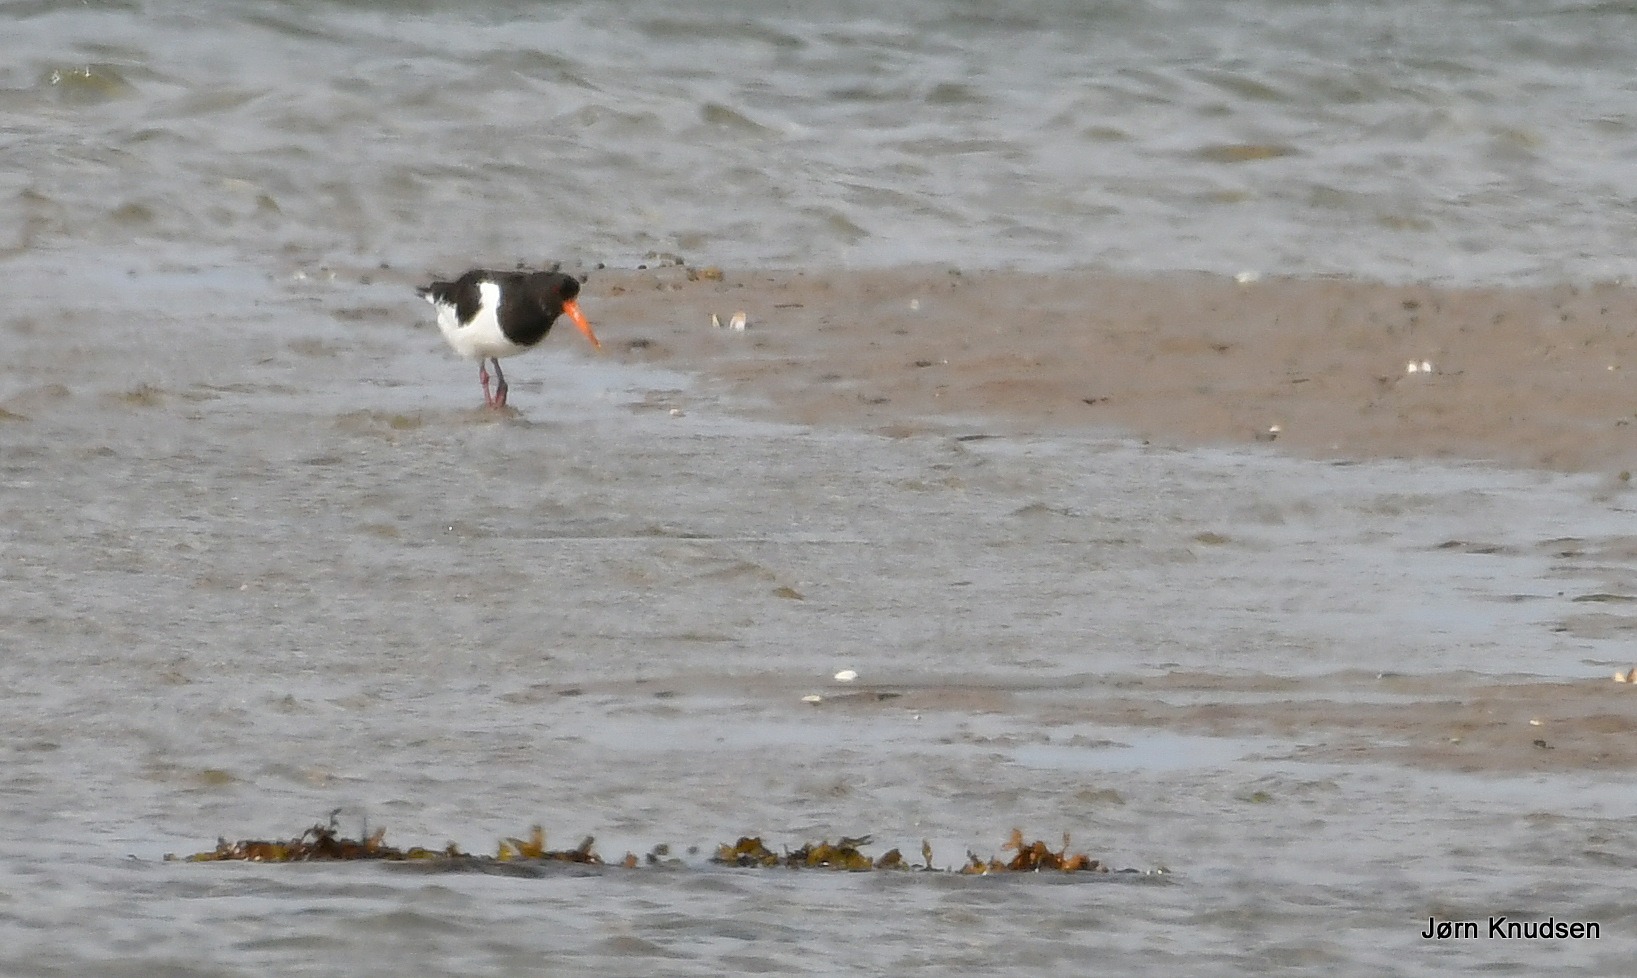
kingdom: Animalia
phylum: Chordata
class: Aves
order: Charadriiformes
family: Haematopodidae
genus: Haematopus
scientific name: Haematopus ostralegus
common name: Strandskade
